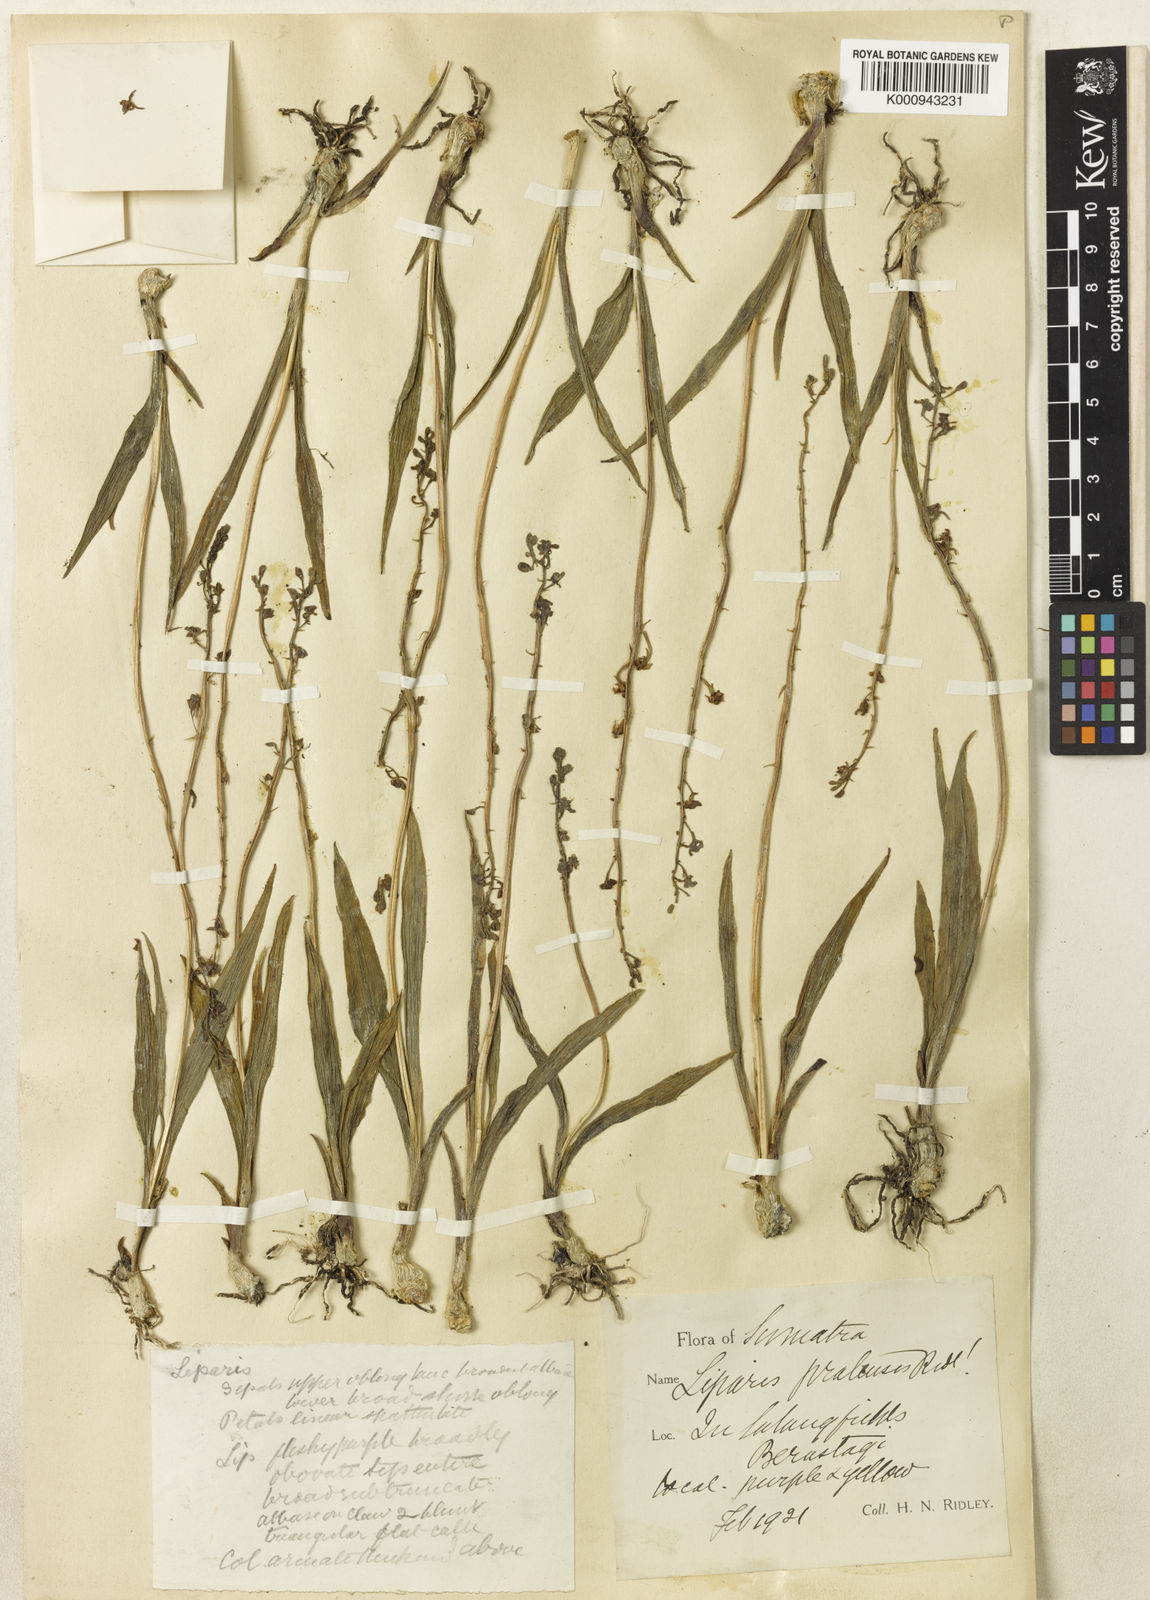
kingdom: Plantae
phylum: Tracheophyta
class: Liliopsida
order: Asparagales
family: Orchidaceae
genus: Liparis
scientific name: Liparis ferruginea
